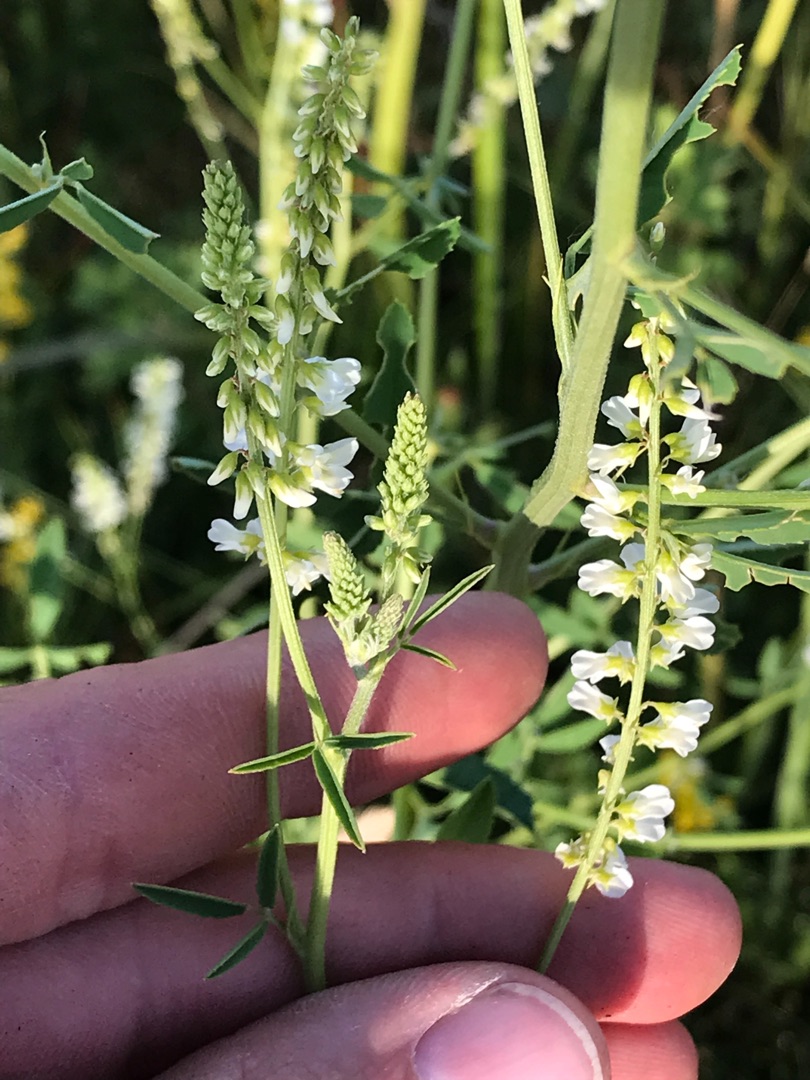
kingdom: Plantae
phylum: Tracheophyta
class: Magnoliopsida
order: Fabales
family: Fabaceae
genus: Melilotus
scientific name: Melilotus albus
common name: Hvid stenkløver
